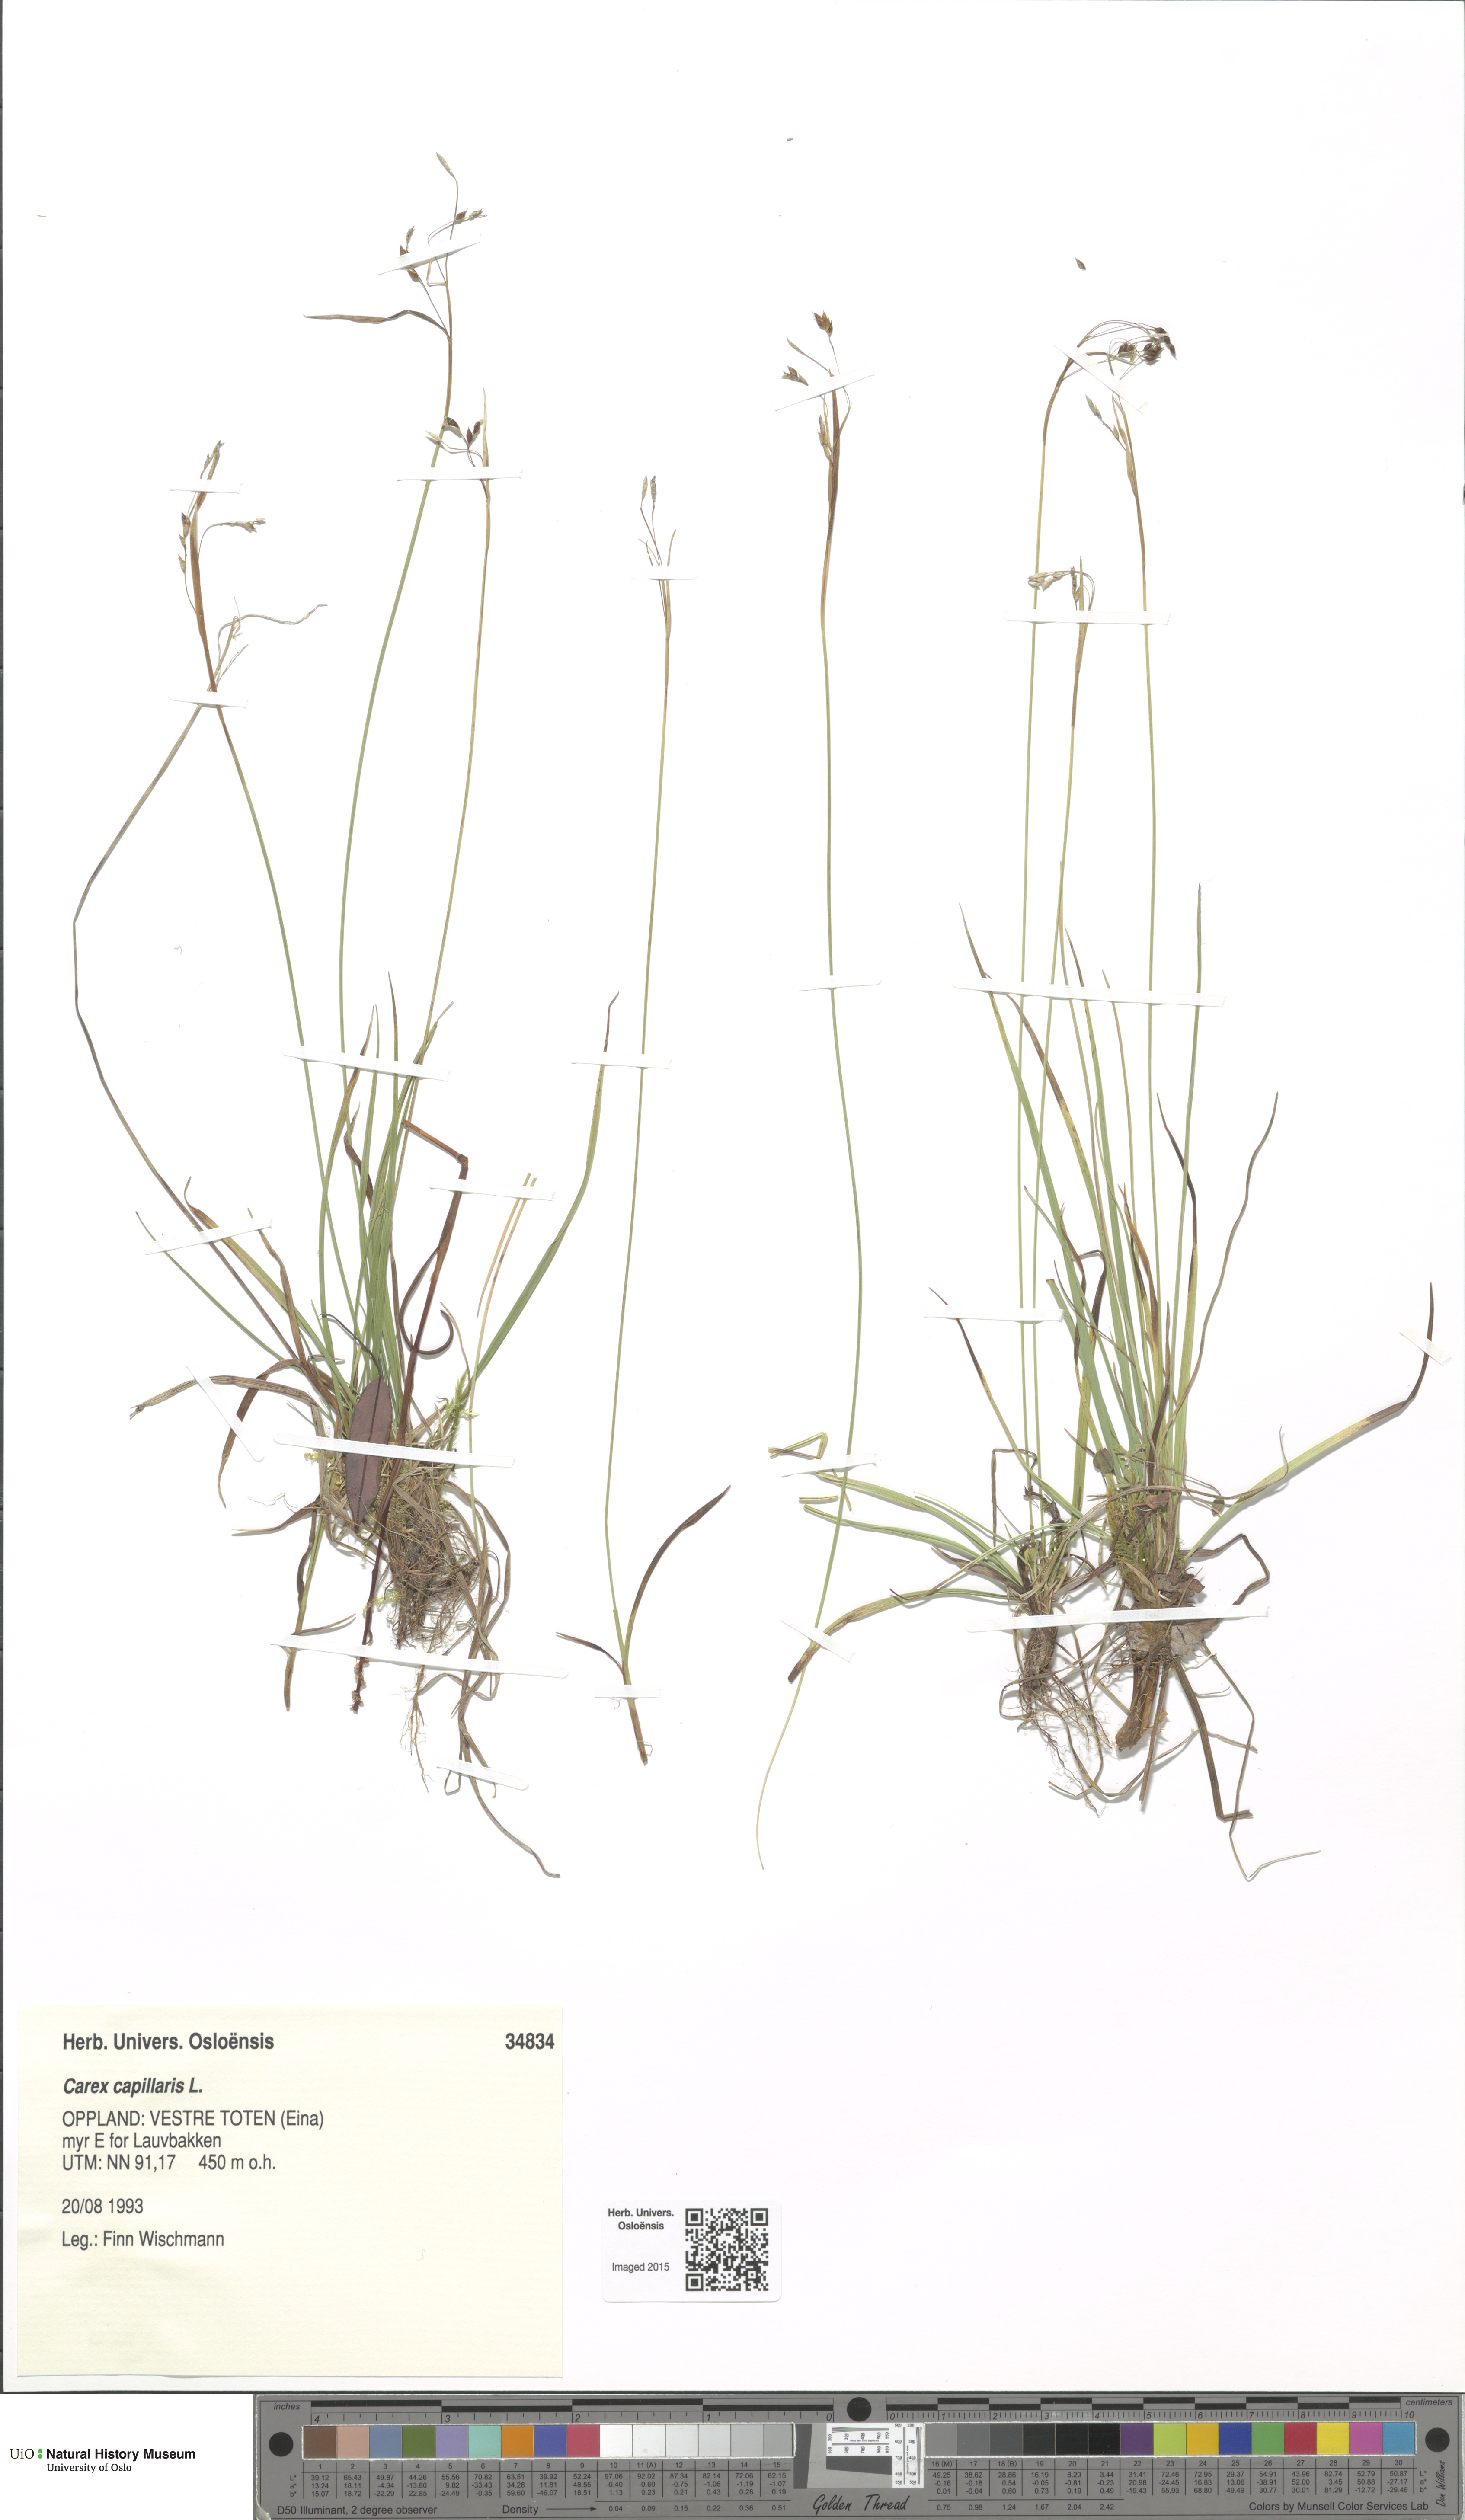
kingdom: Plantae
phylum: Tracheophyta
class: Liliopsida
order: Poales
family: Cyperaceae
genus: Carex
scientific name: Carex capillaris
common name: Hair sedge
